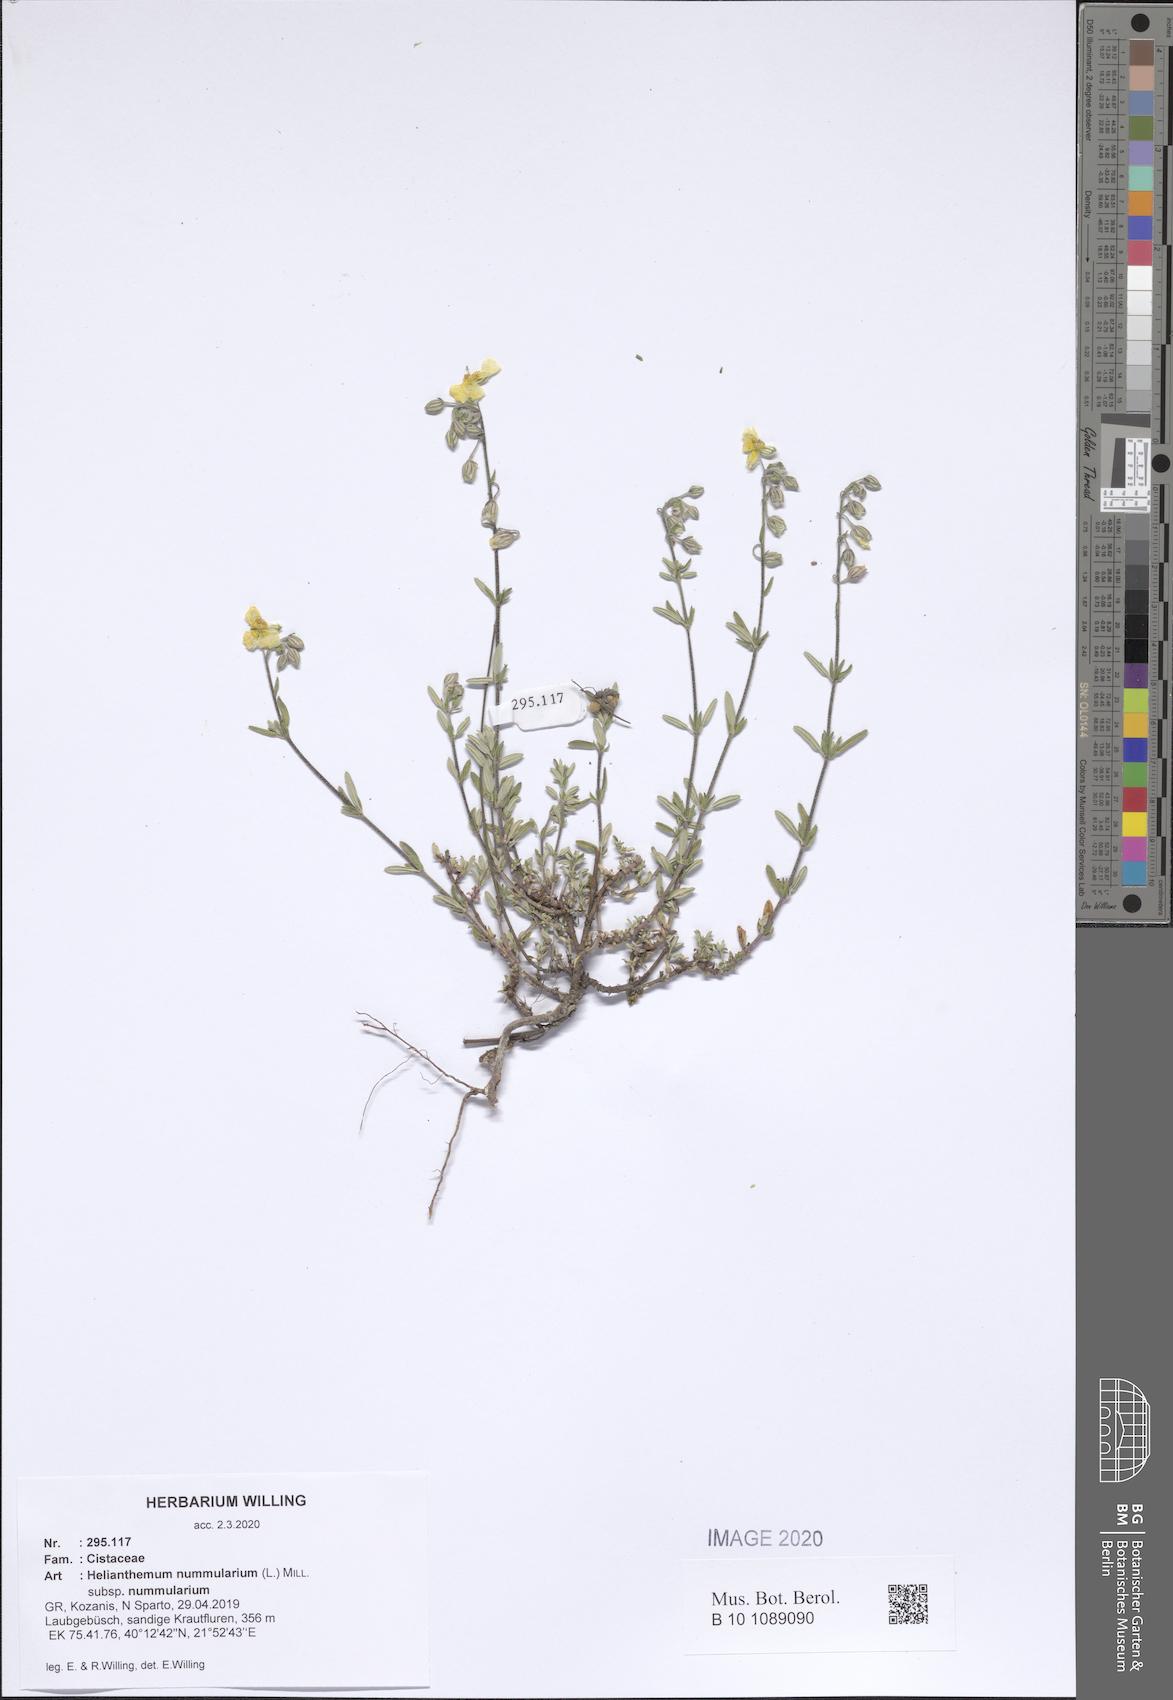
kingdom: Plantae
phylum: Tracheophyta
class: Magnoliopsida
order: Malvales
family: Cistaceae
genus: Helianthemum
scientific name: Helianthemum nummularium
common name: Common rock-rose
